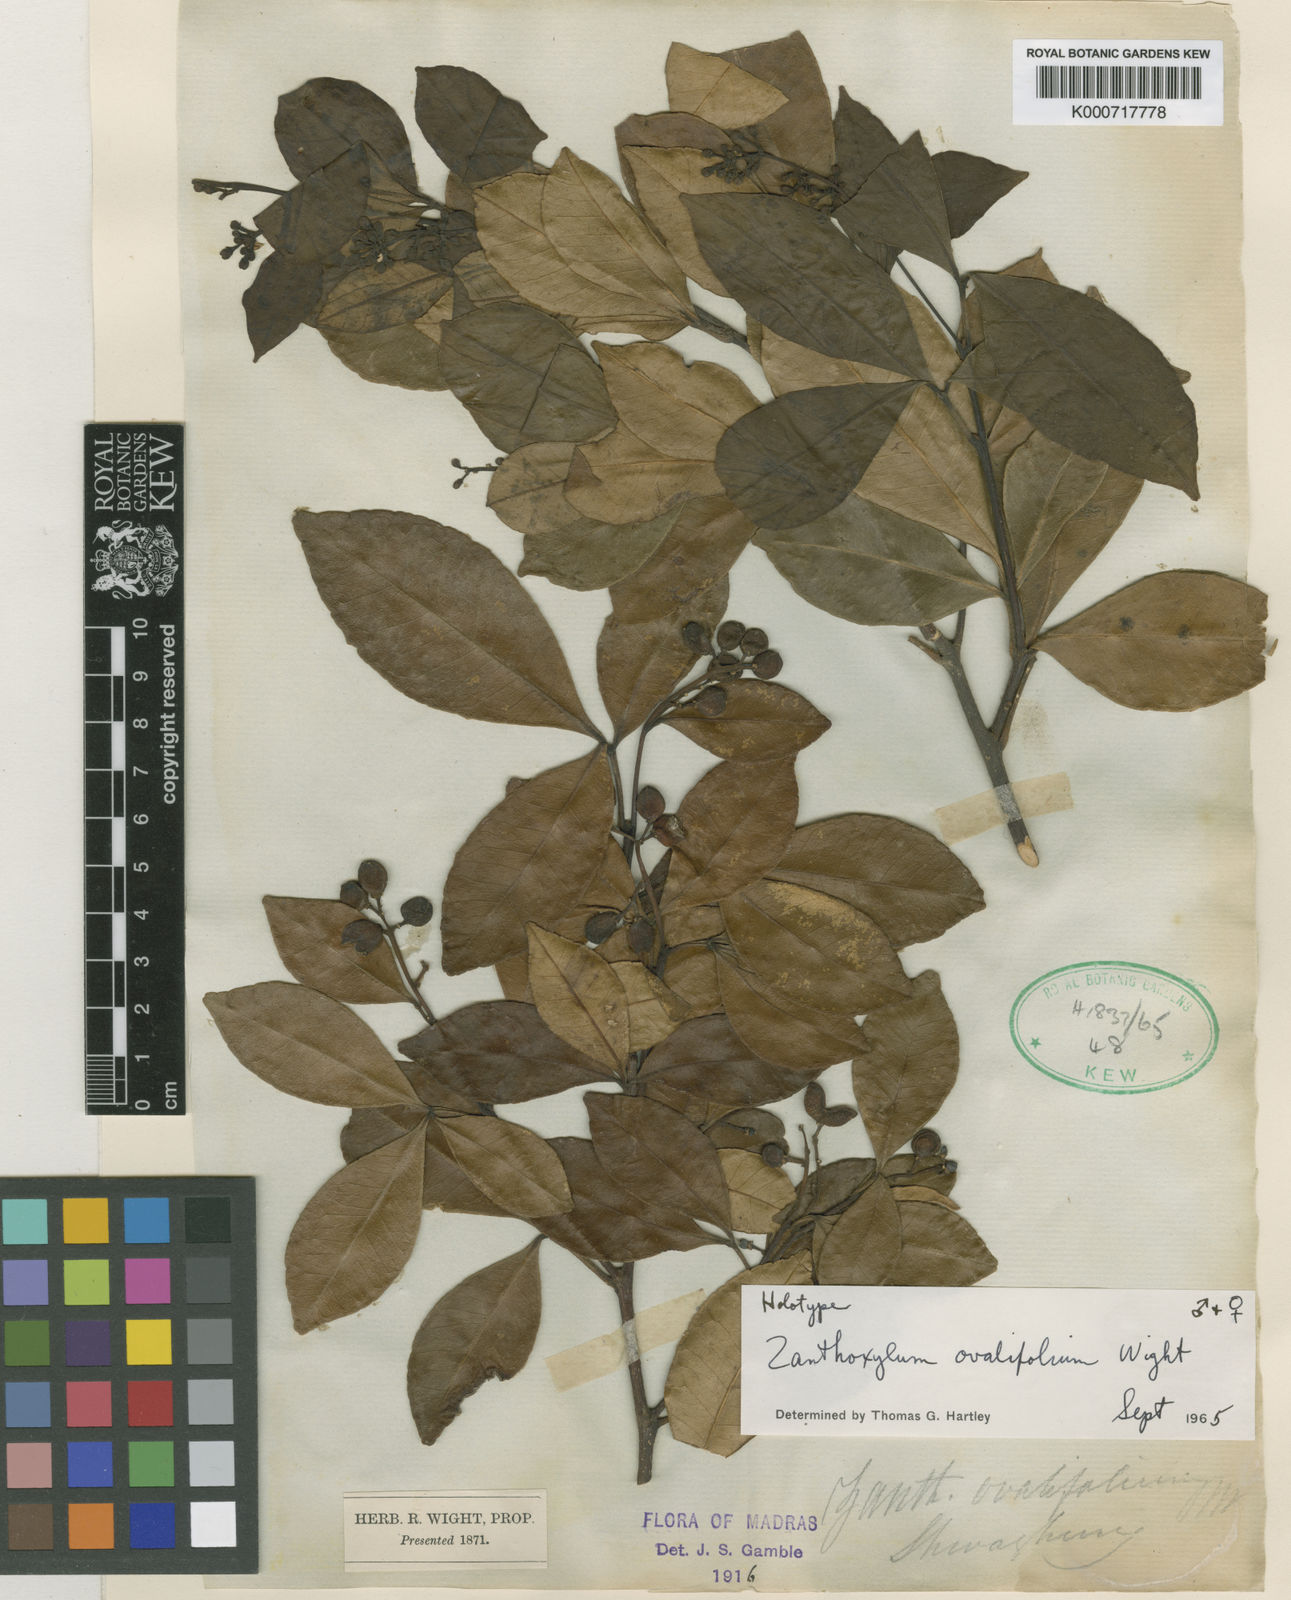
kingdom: Plantae
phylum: Tracheophyta
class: Magnoliopsida
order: Sapindales
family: Rutaceae
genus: Zanthoxylum
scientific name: Zanthoxylum ovalifolium
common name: Thorny yellowwood
